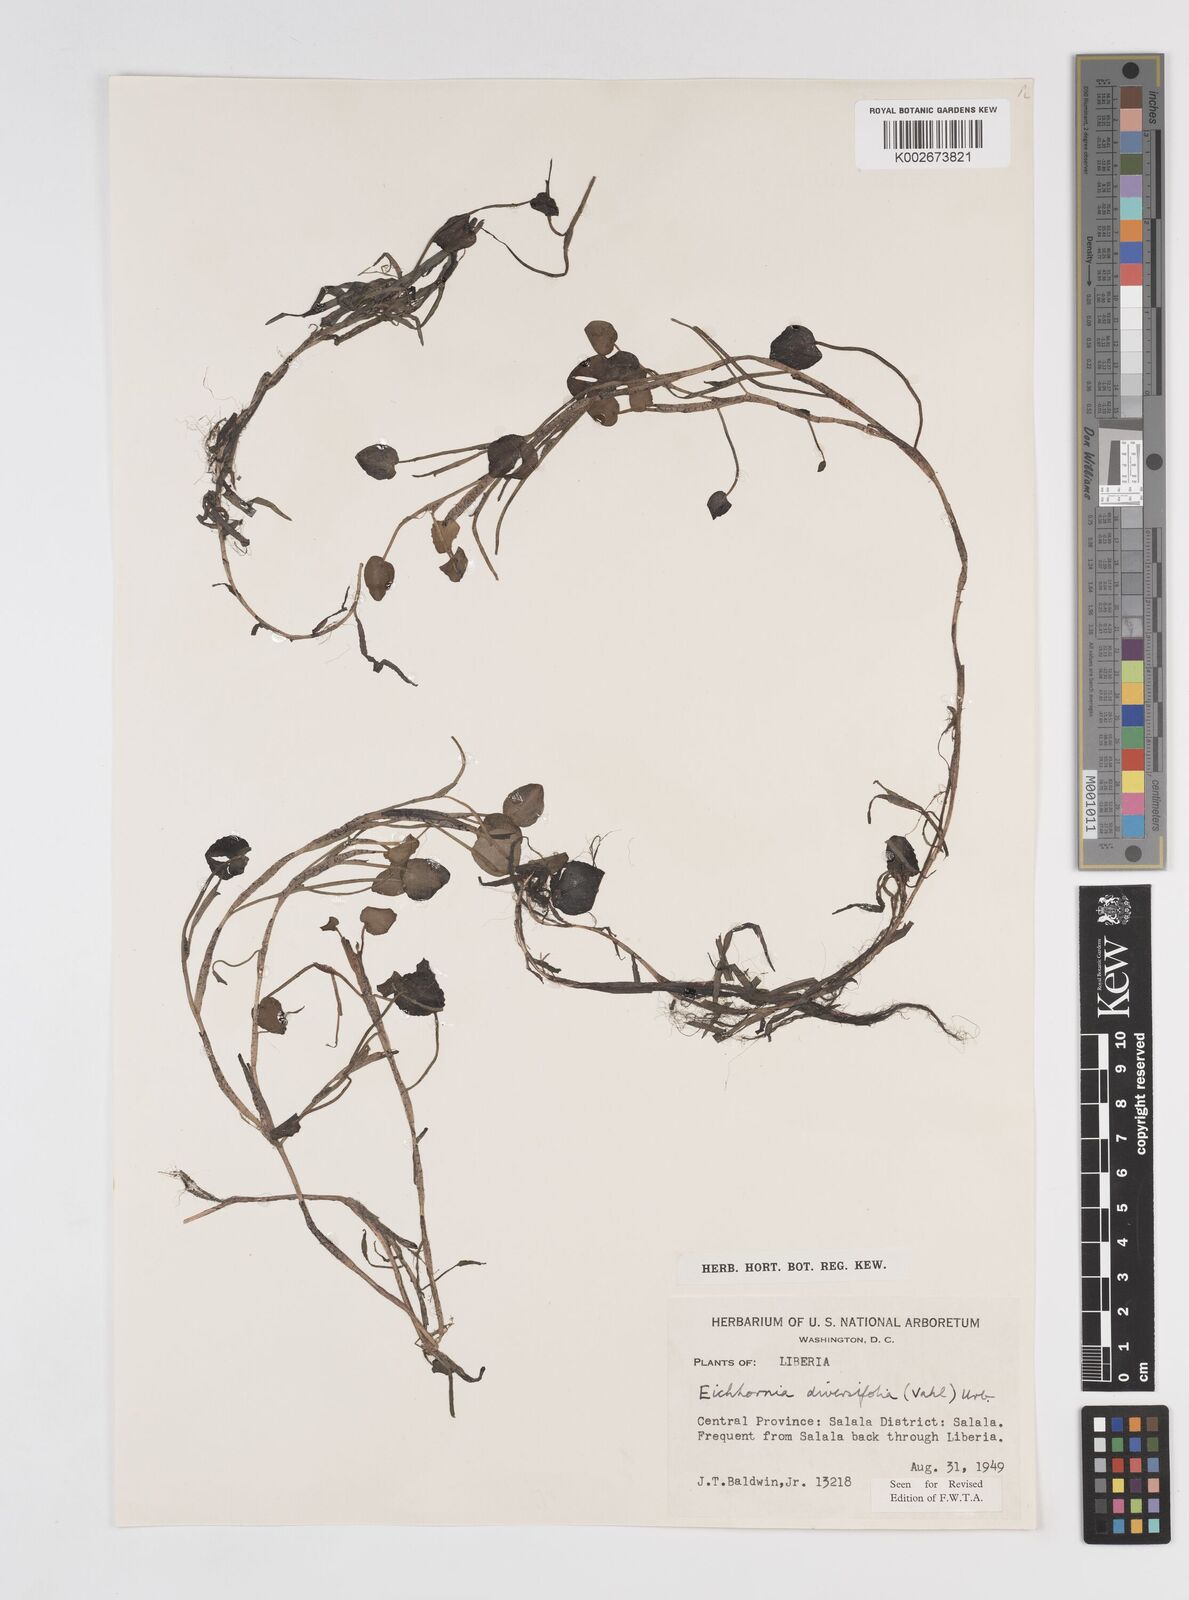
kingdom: Plantae
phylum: Tracheophyta
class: Liliopsida
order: Commelinales
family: Pontederiaceae
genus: Pontederia
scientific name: Pontederia diversifolia
